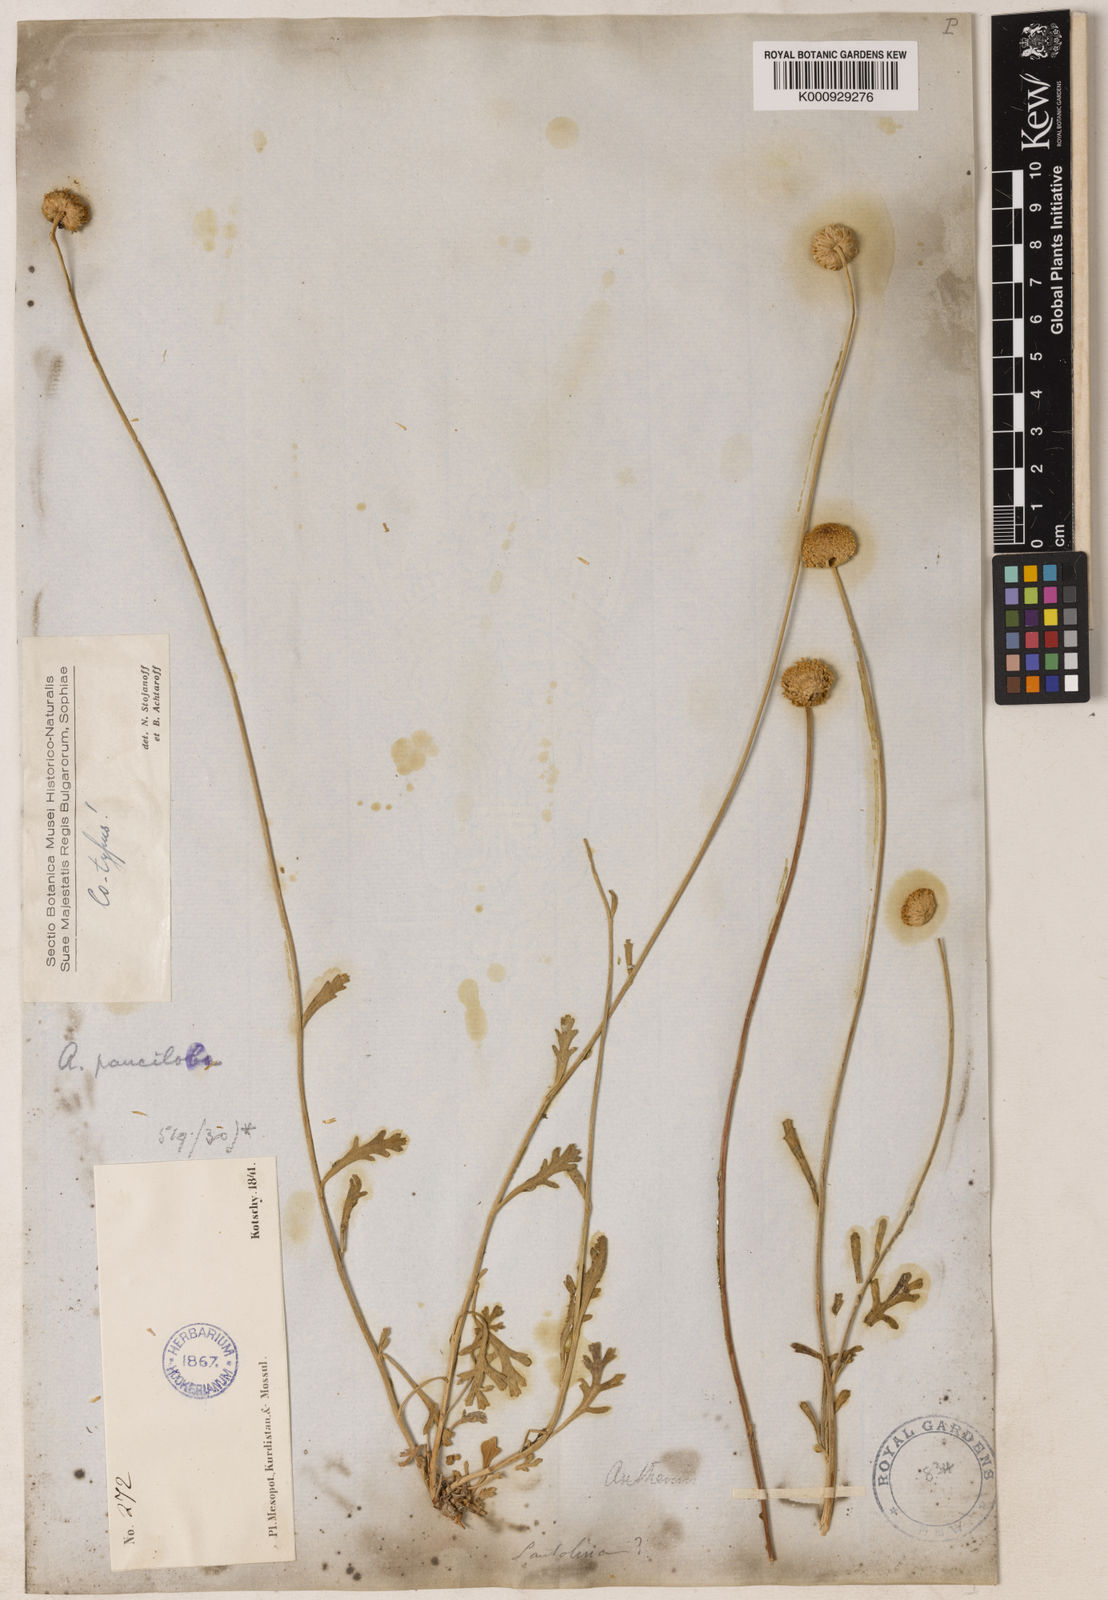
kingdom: Plantae
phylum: Tracheophyta
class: Magnoliopsida
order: Asterales
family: Asteraceae
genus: Anthemis
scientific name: Anthemis pauciloba
